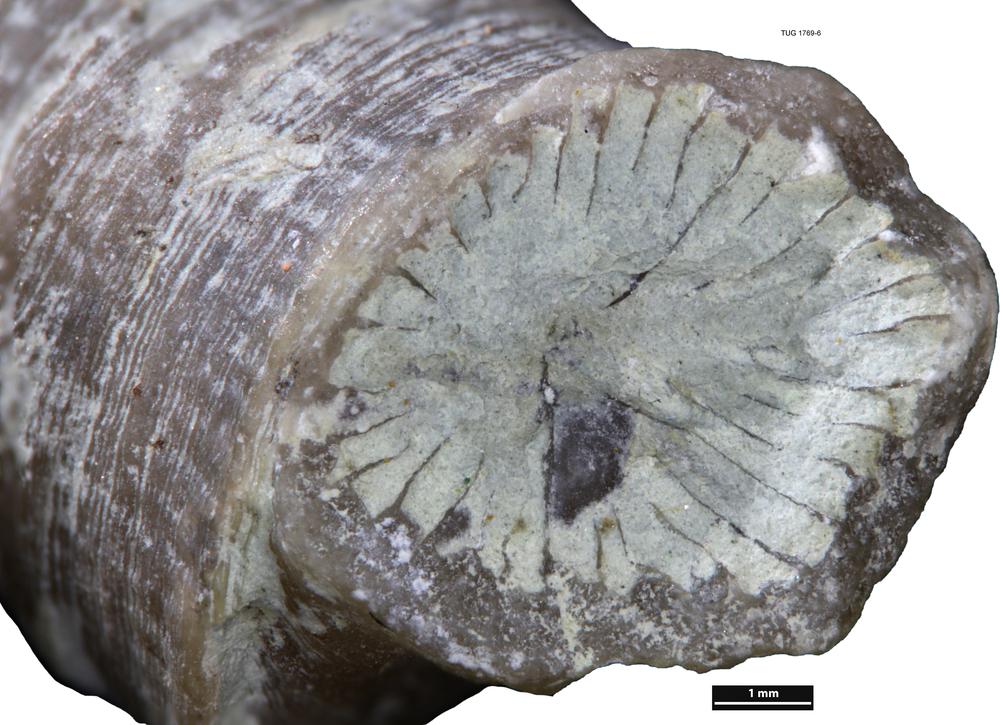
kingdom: Animalia
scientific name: Animalia
